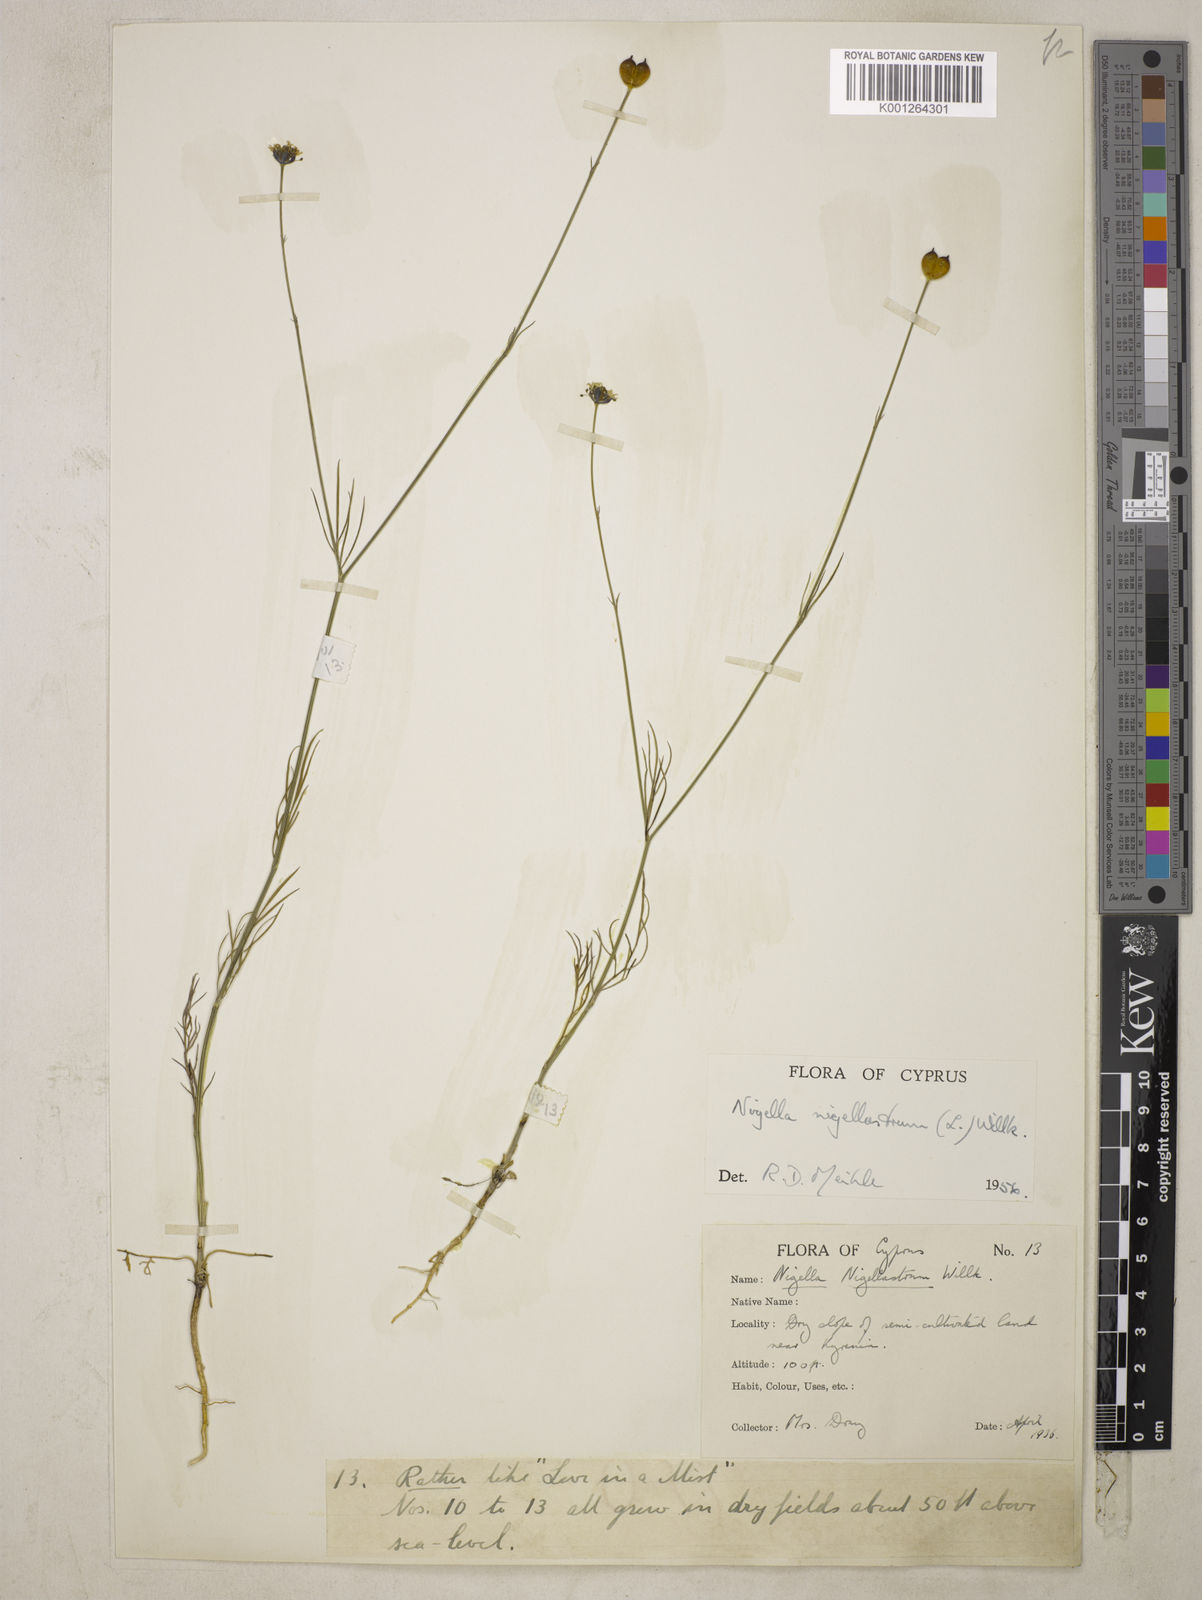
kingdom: Plantae
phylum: Tracheophyta
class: Magnoliopsida
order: Ranunculales
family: Ranunculaceae
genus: Garidella
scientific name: Garidella nigellastrum
